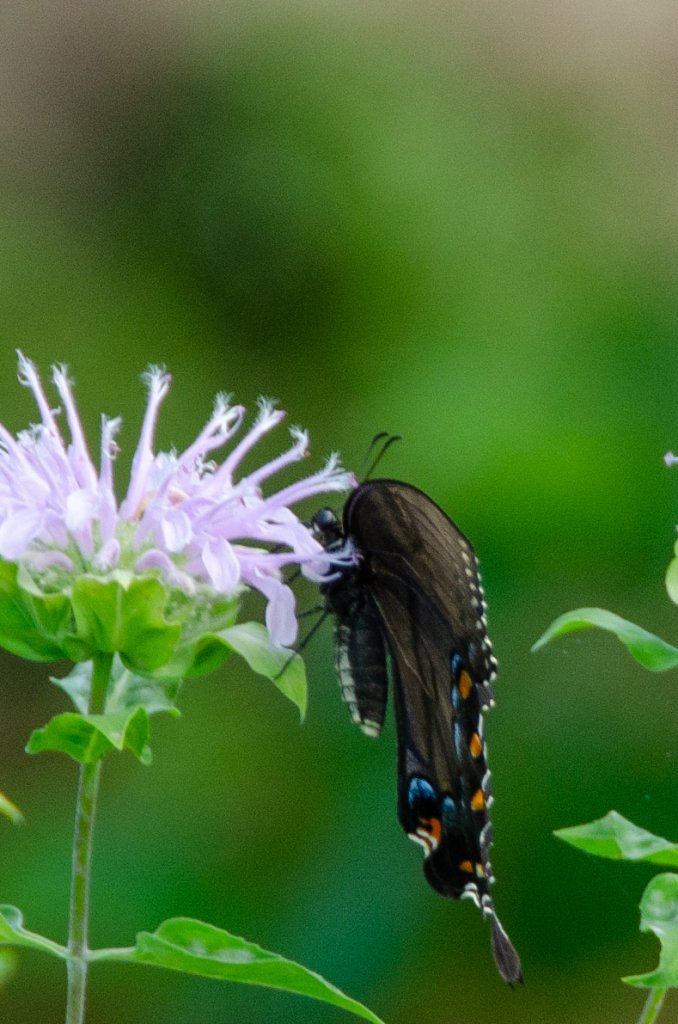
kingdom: Animalia
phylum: Arthropoda
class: Insecta
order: Lepidoptera
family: Papilionidae
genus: Pterourus
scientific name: Pterourus glaucus
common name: Eastern Tiger Swallowtail
